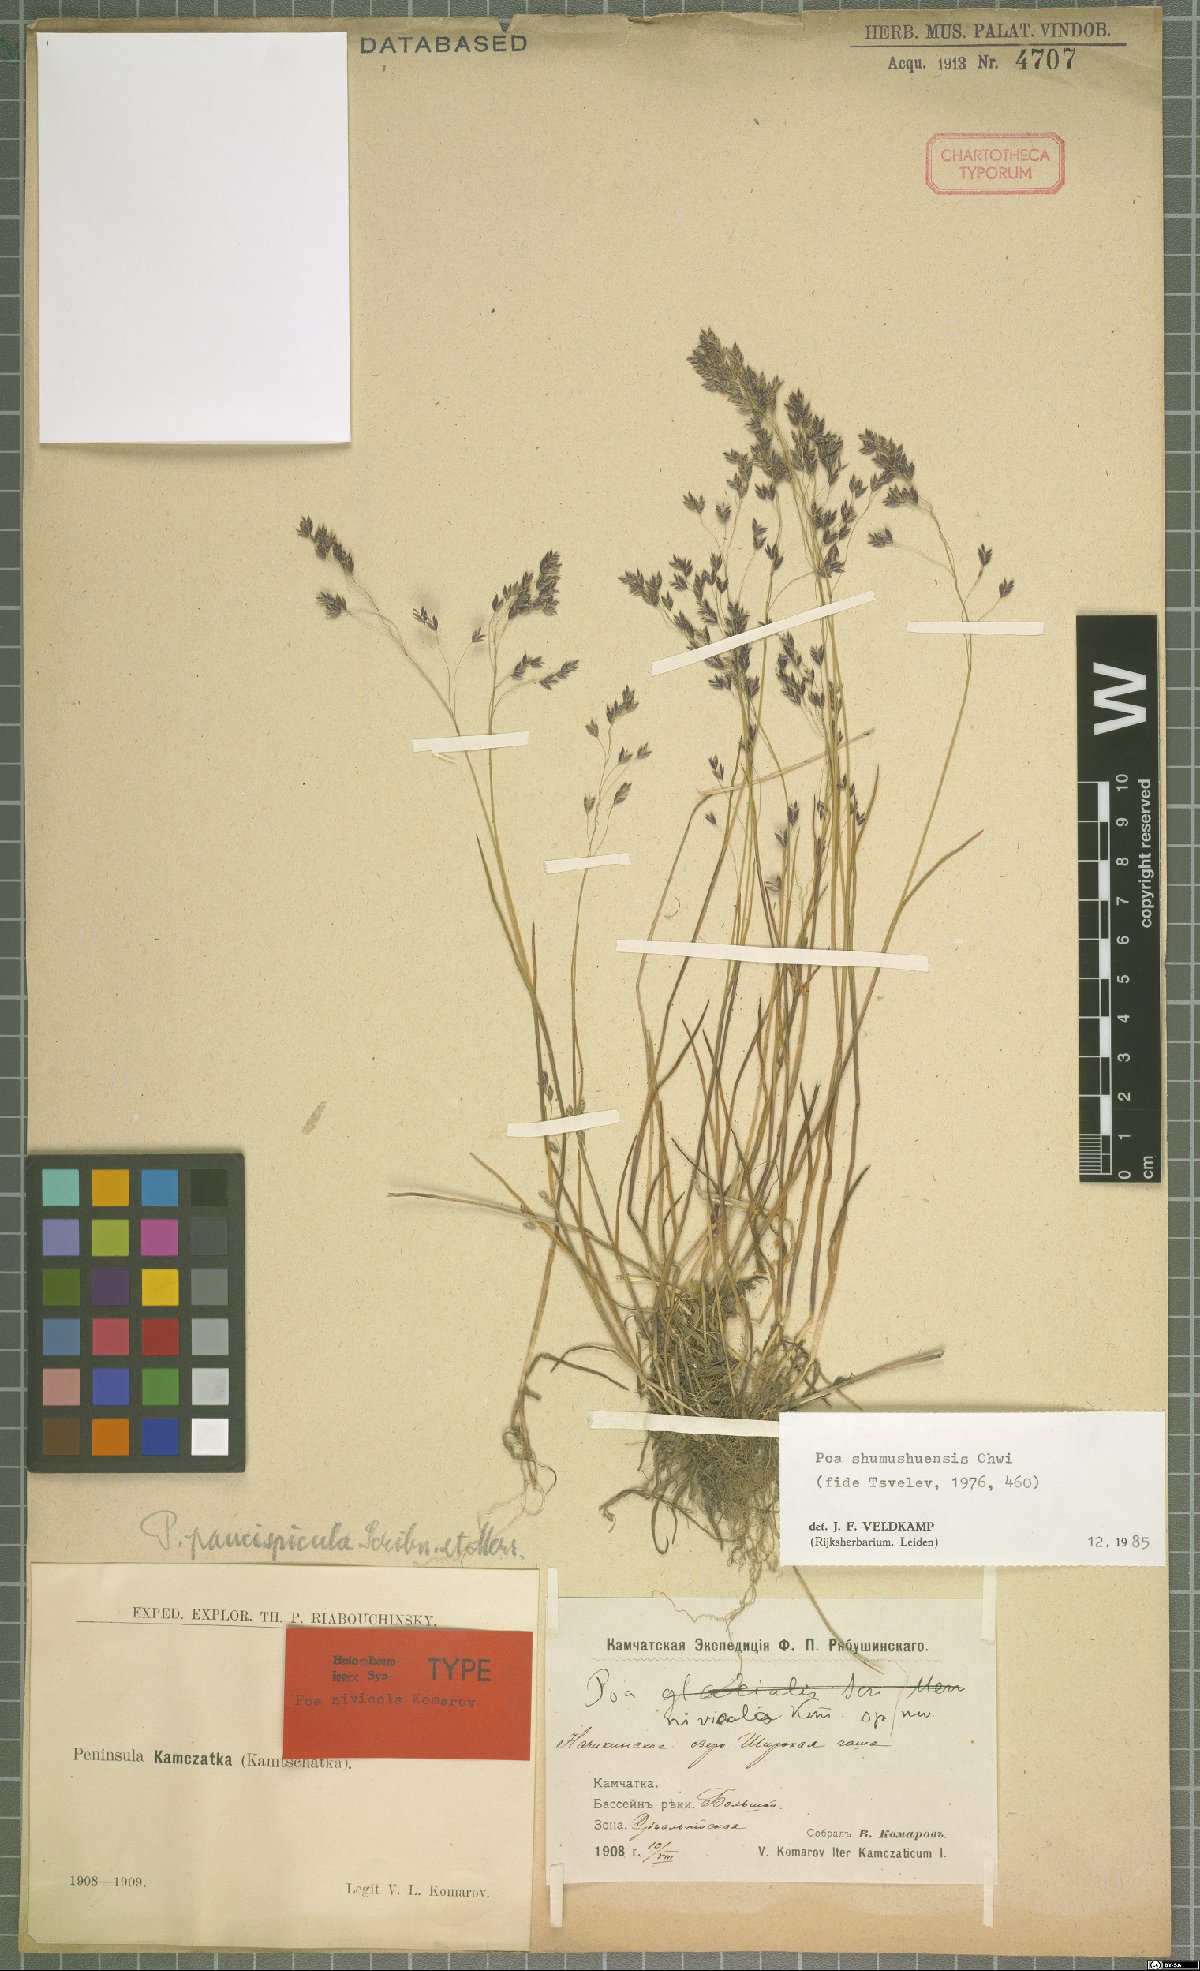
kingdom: Plantae
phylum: Tracheophyta
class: Liliopsida
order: Poales
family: Poaceae
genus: Poa
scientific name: Poa shumushuensis
